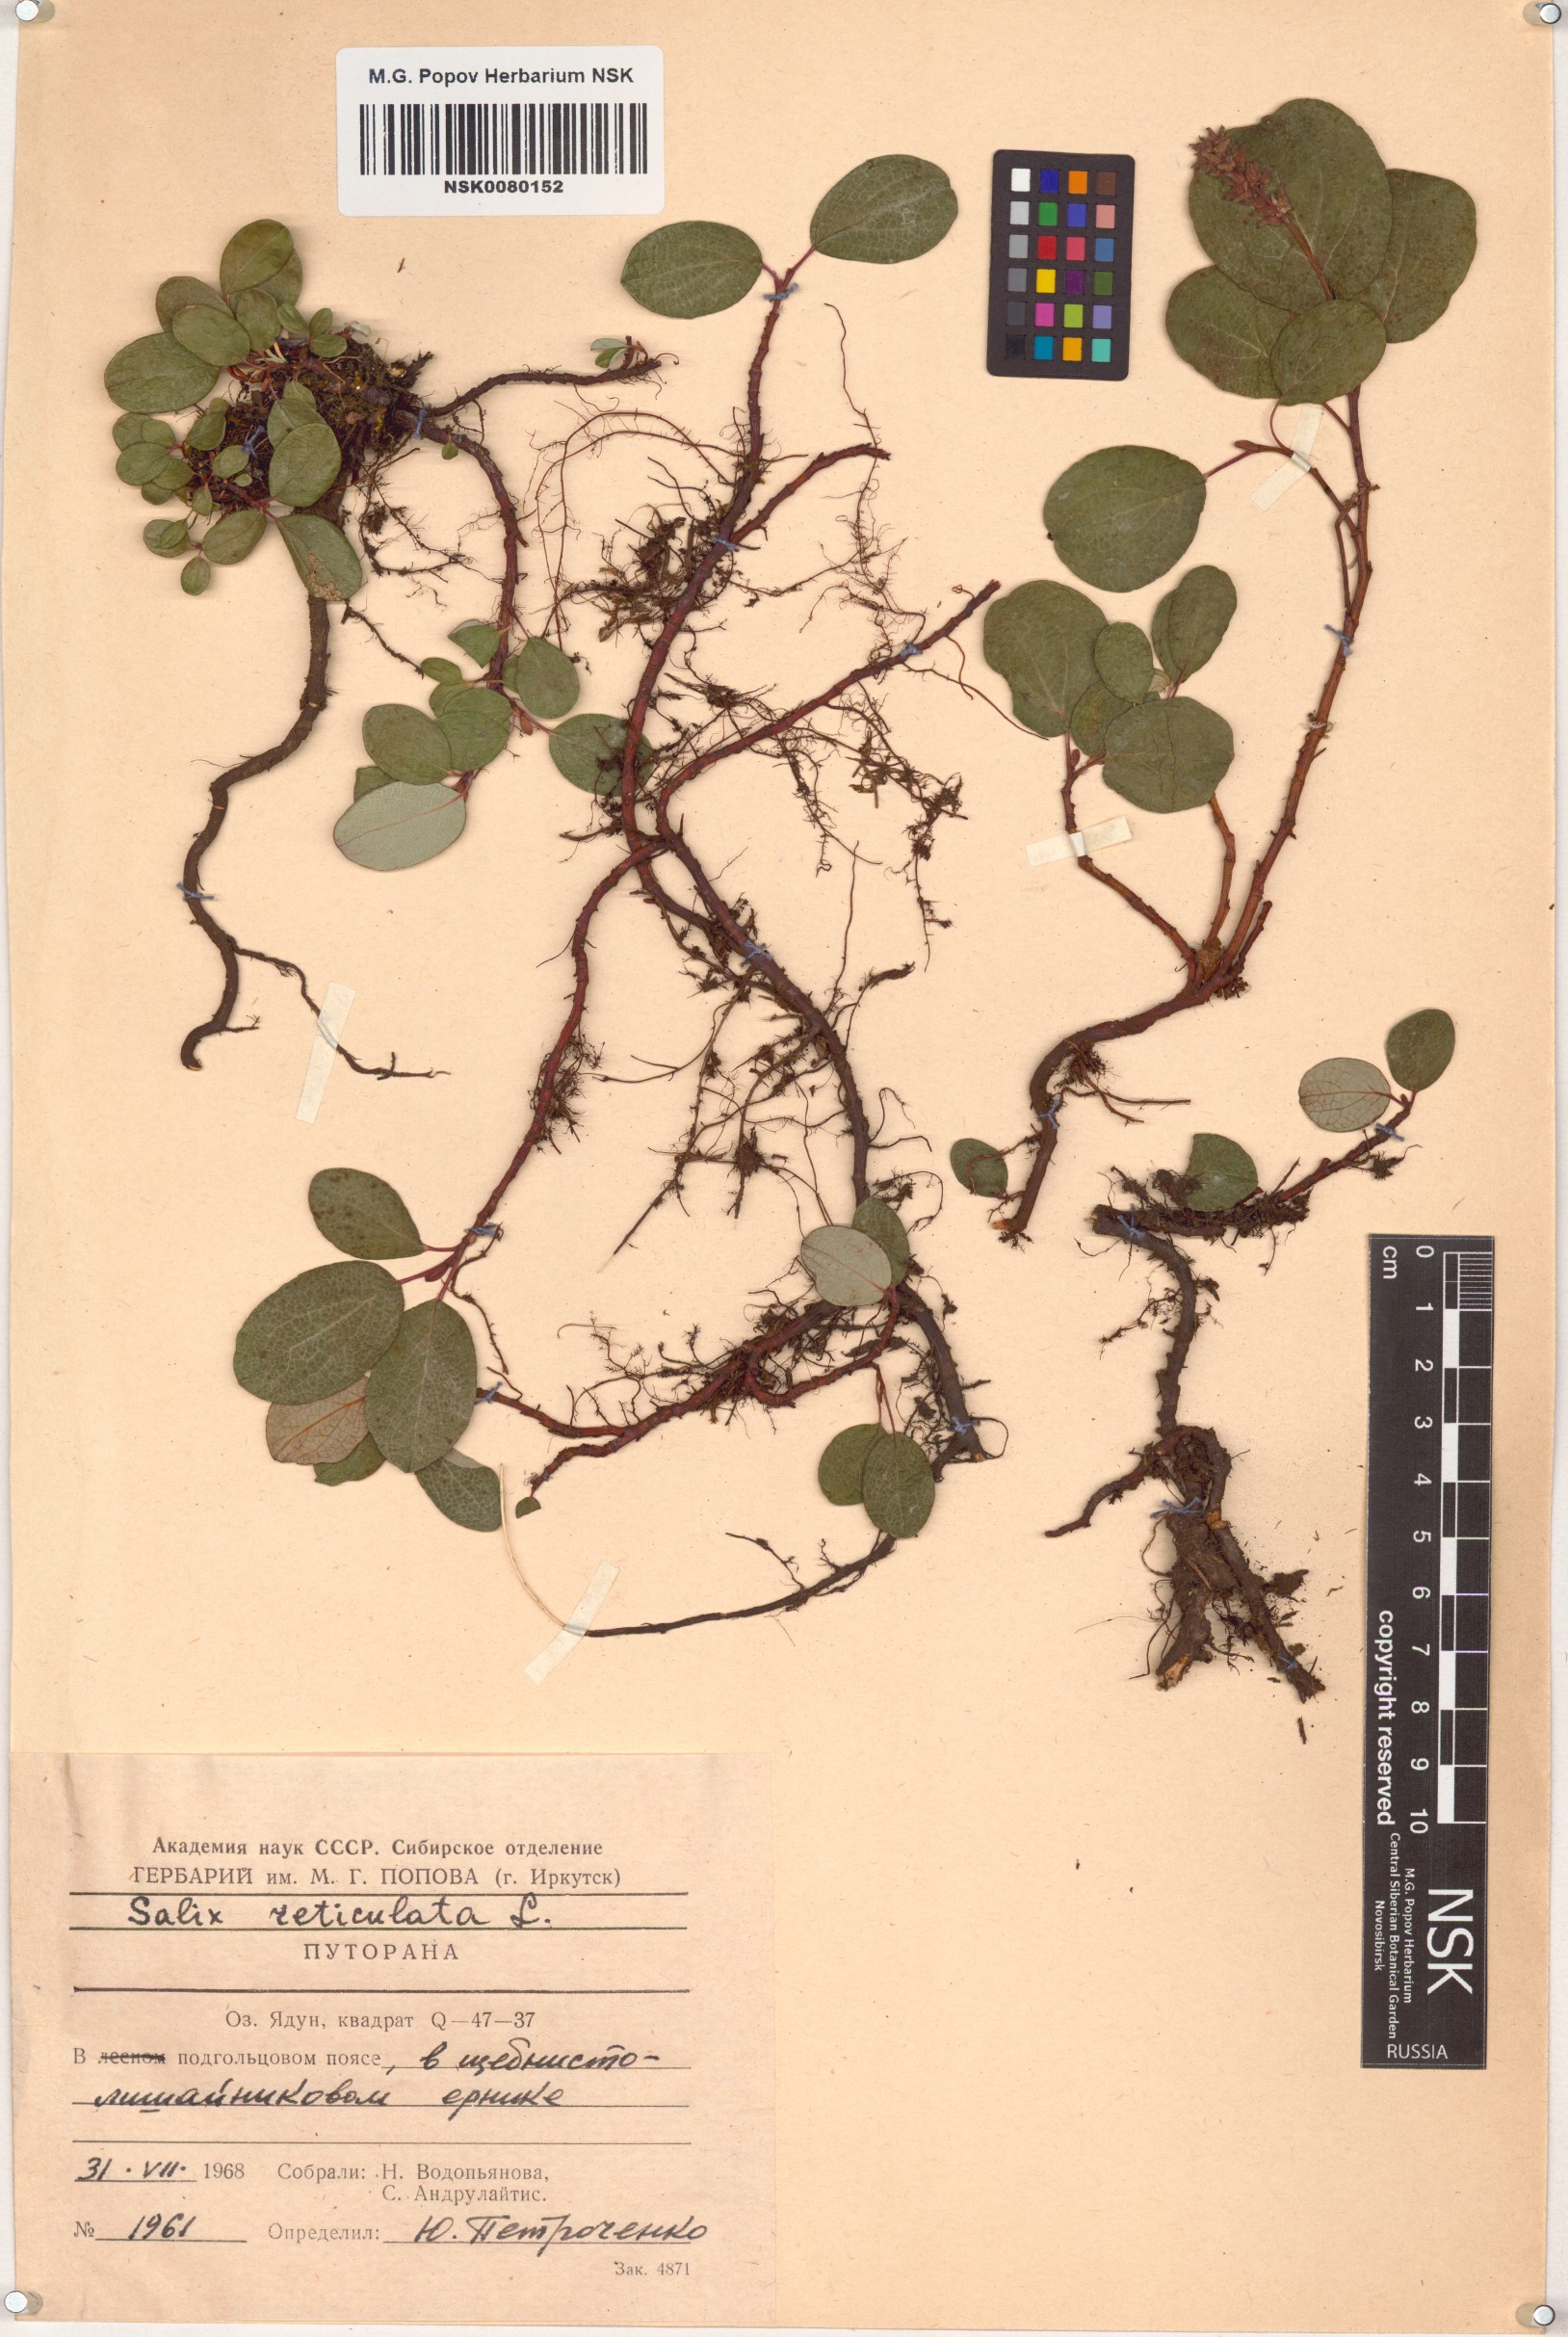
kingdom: Plantae
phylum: Tracheophyta
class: Magnoliopsida
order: Malpighiales
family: Salicaceae
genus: Salix
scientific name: Salix reticulata
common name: Net-leaved willow
